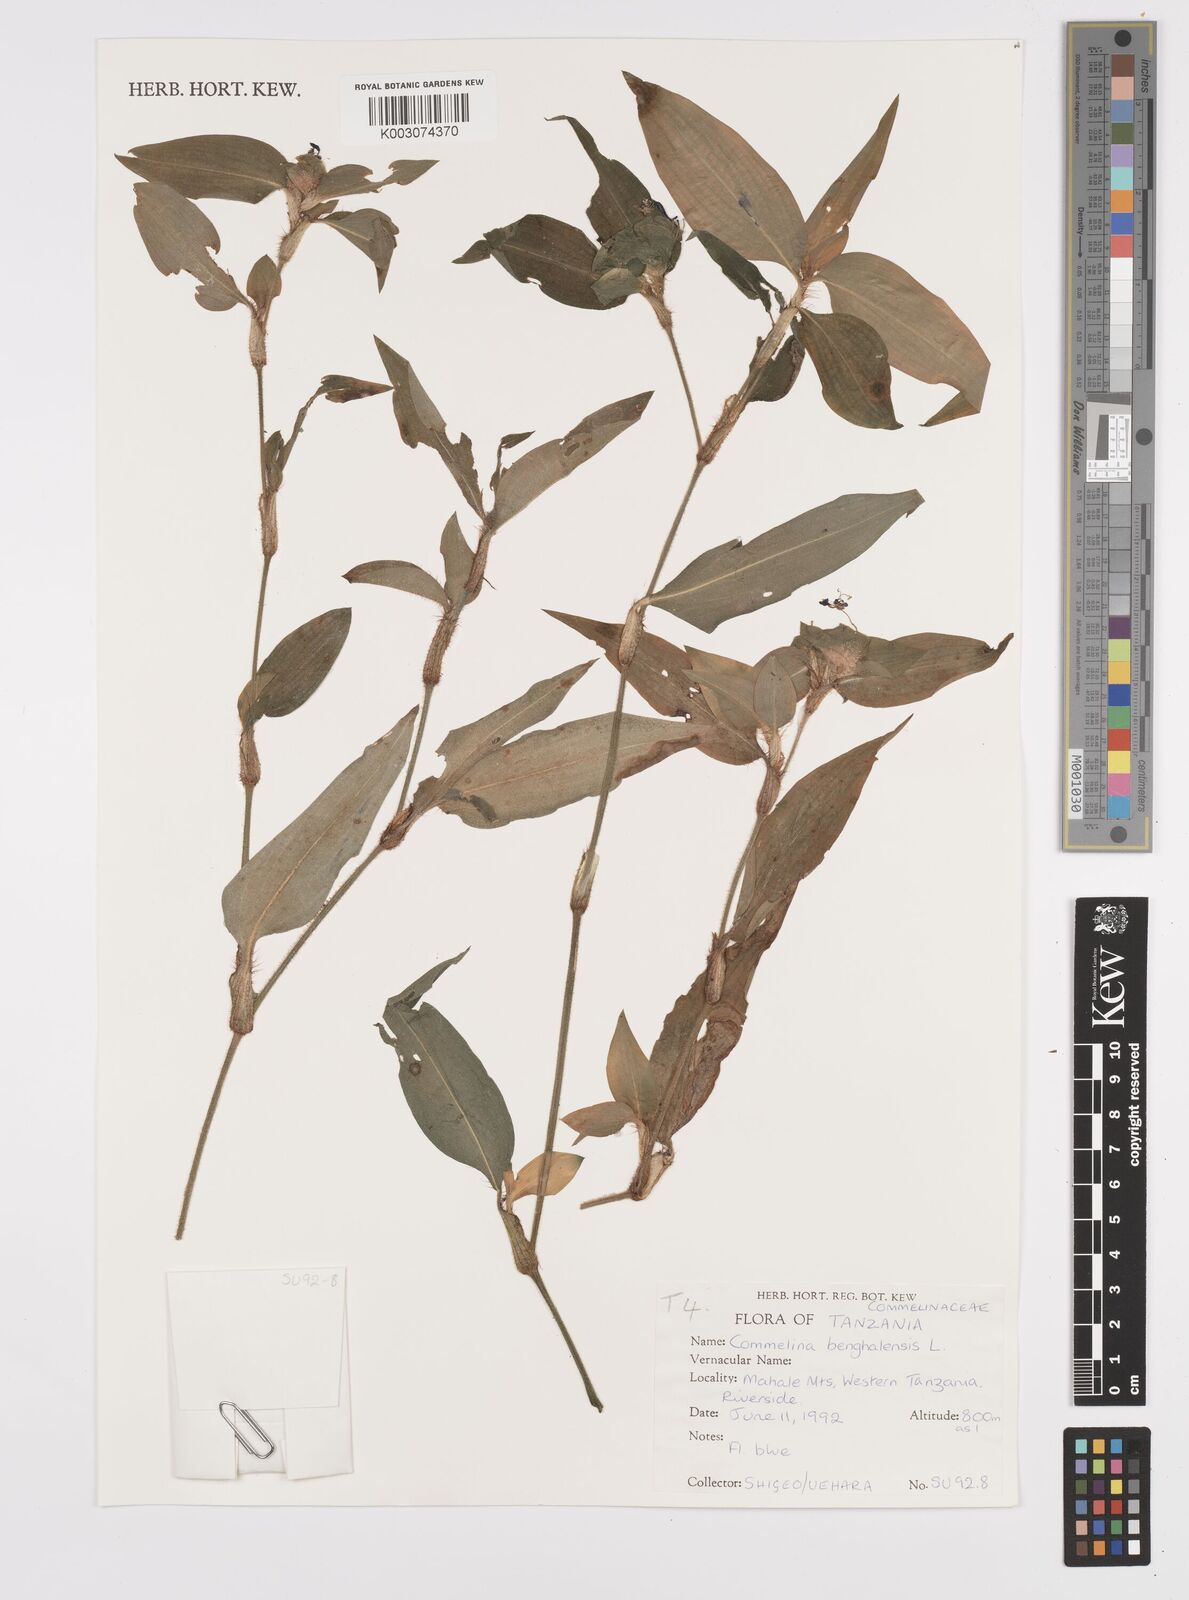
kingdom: Plantae
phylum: Tracheophyta
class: Liliopsida
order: Commelinales
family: Commelinaceae
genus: Commelina
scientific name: Commelina benghalensis
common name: Jio
